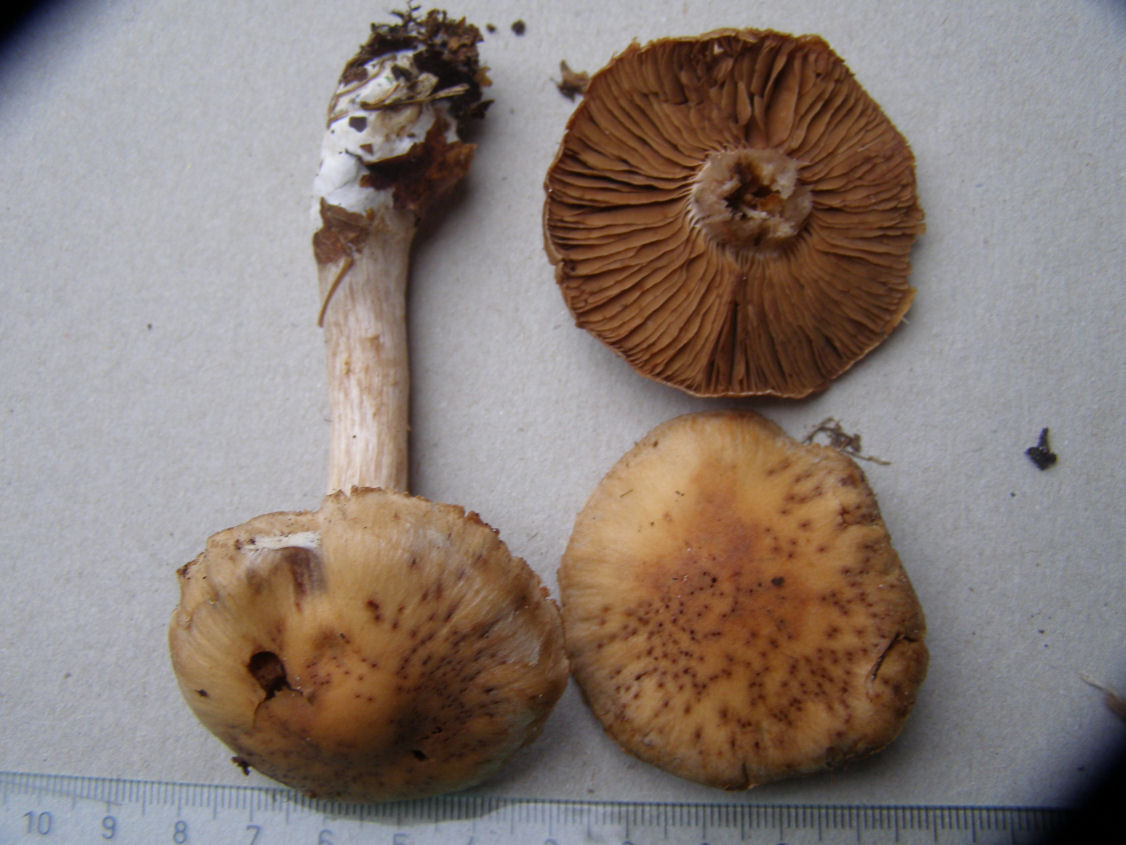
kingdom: Fungi
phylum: Basidiomycota
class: Agaricomycetes
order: Agaricales
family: Cortinariaceae
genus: Cortinarius
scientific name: Cortinarius bivelus
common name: orangebrun slørhat
